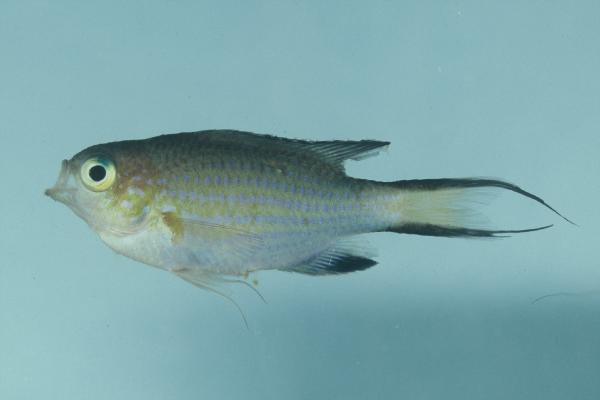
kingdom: Animalia
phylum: Chordata
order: Perciformes
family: Pomacentridae
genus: Chromis
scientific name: Chromis nigrura
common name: Blacktail chromis
